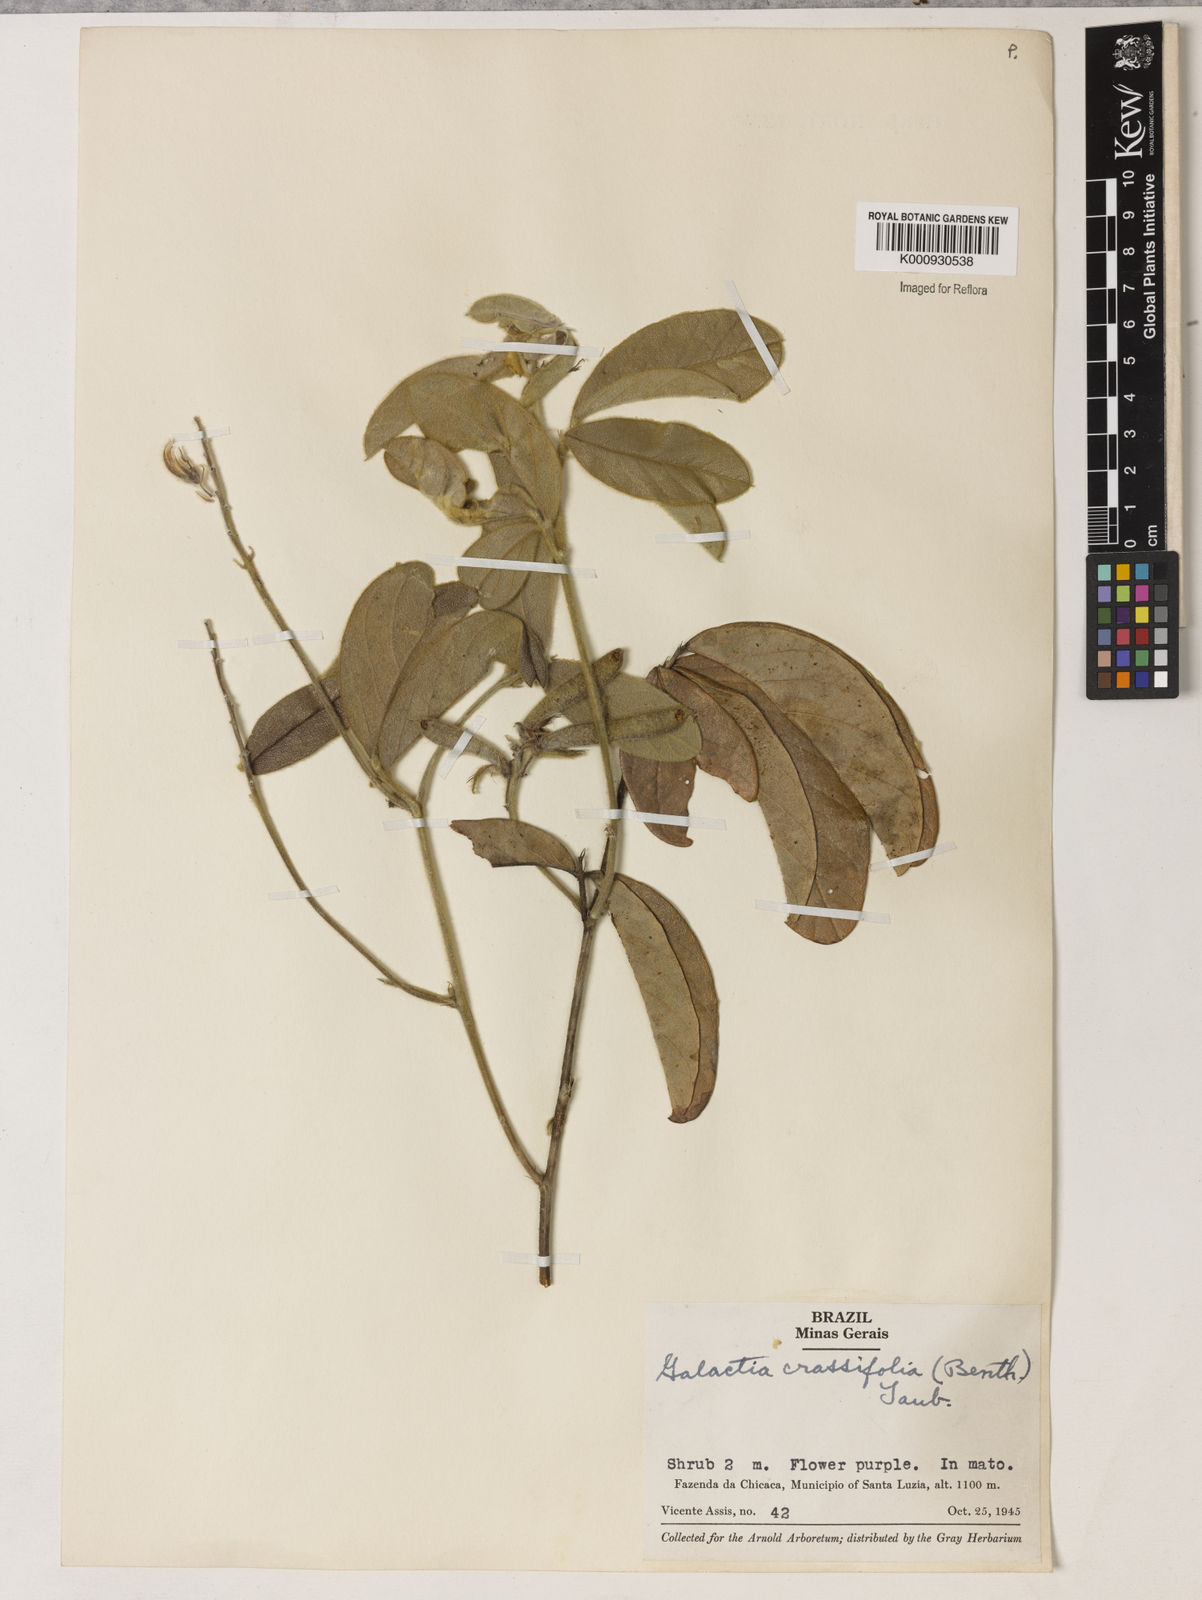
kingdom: Plantae
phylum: Tracheophyta
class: Magnoliopsida
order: Fabales
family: Fabaceae
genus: Betencourtia
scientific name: Betencourtia crassifolia
